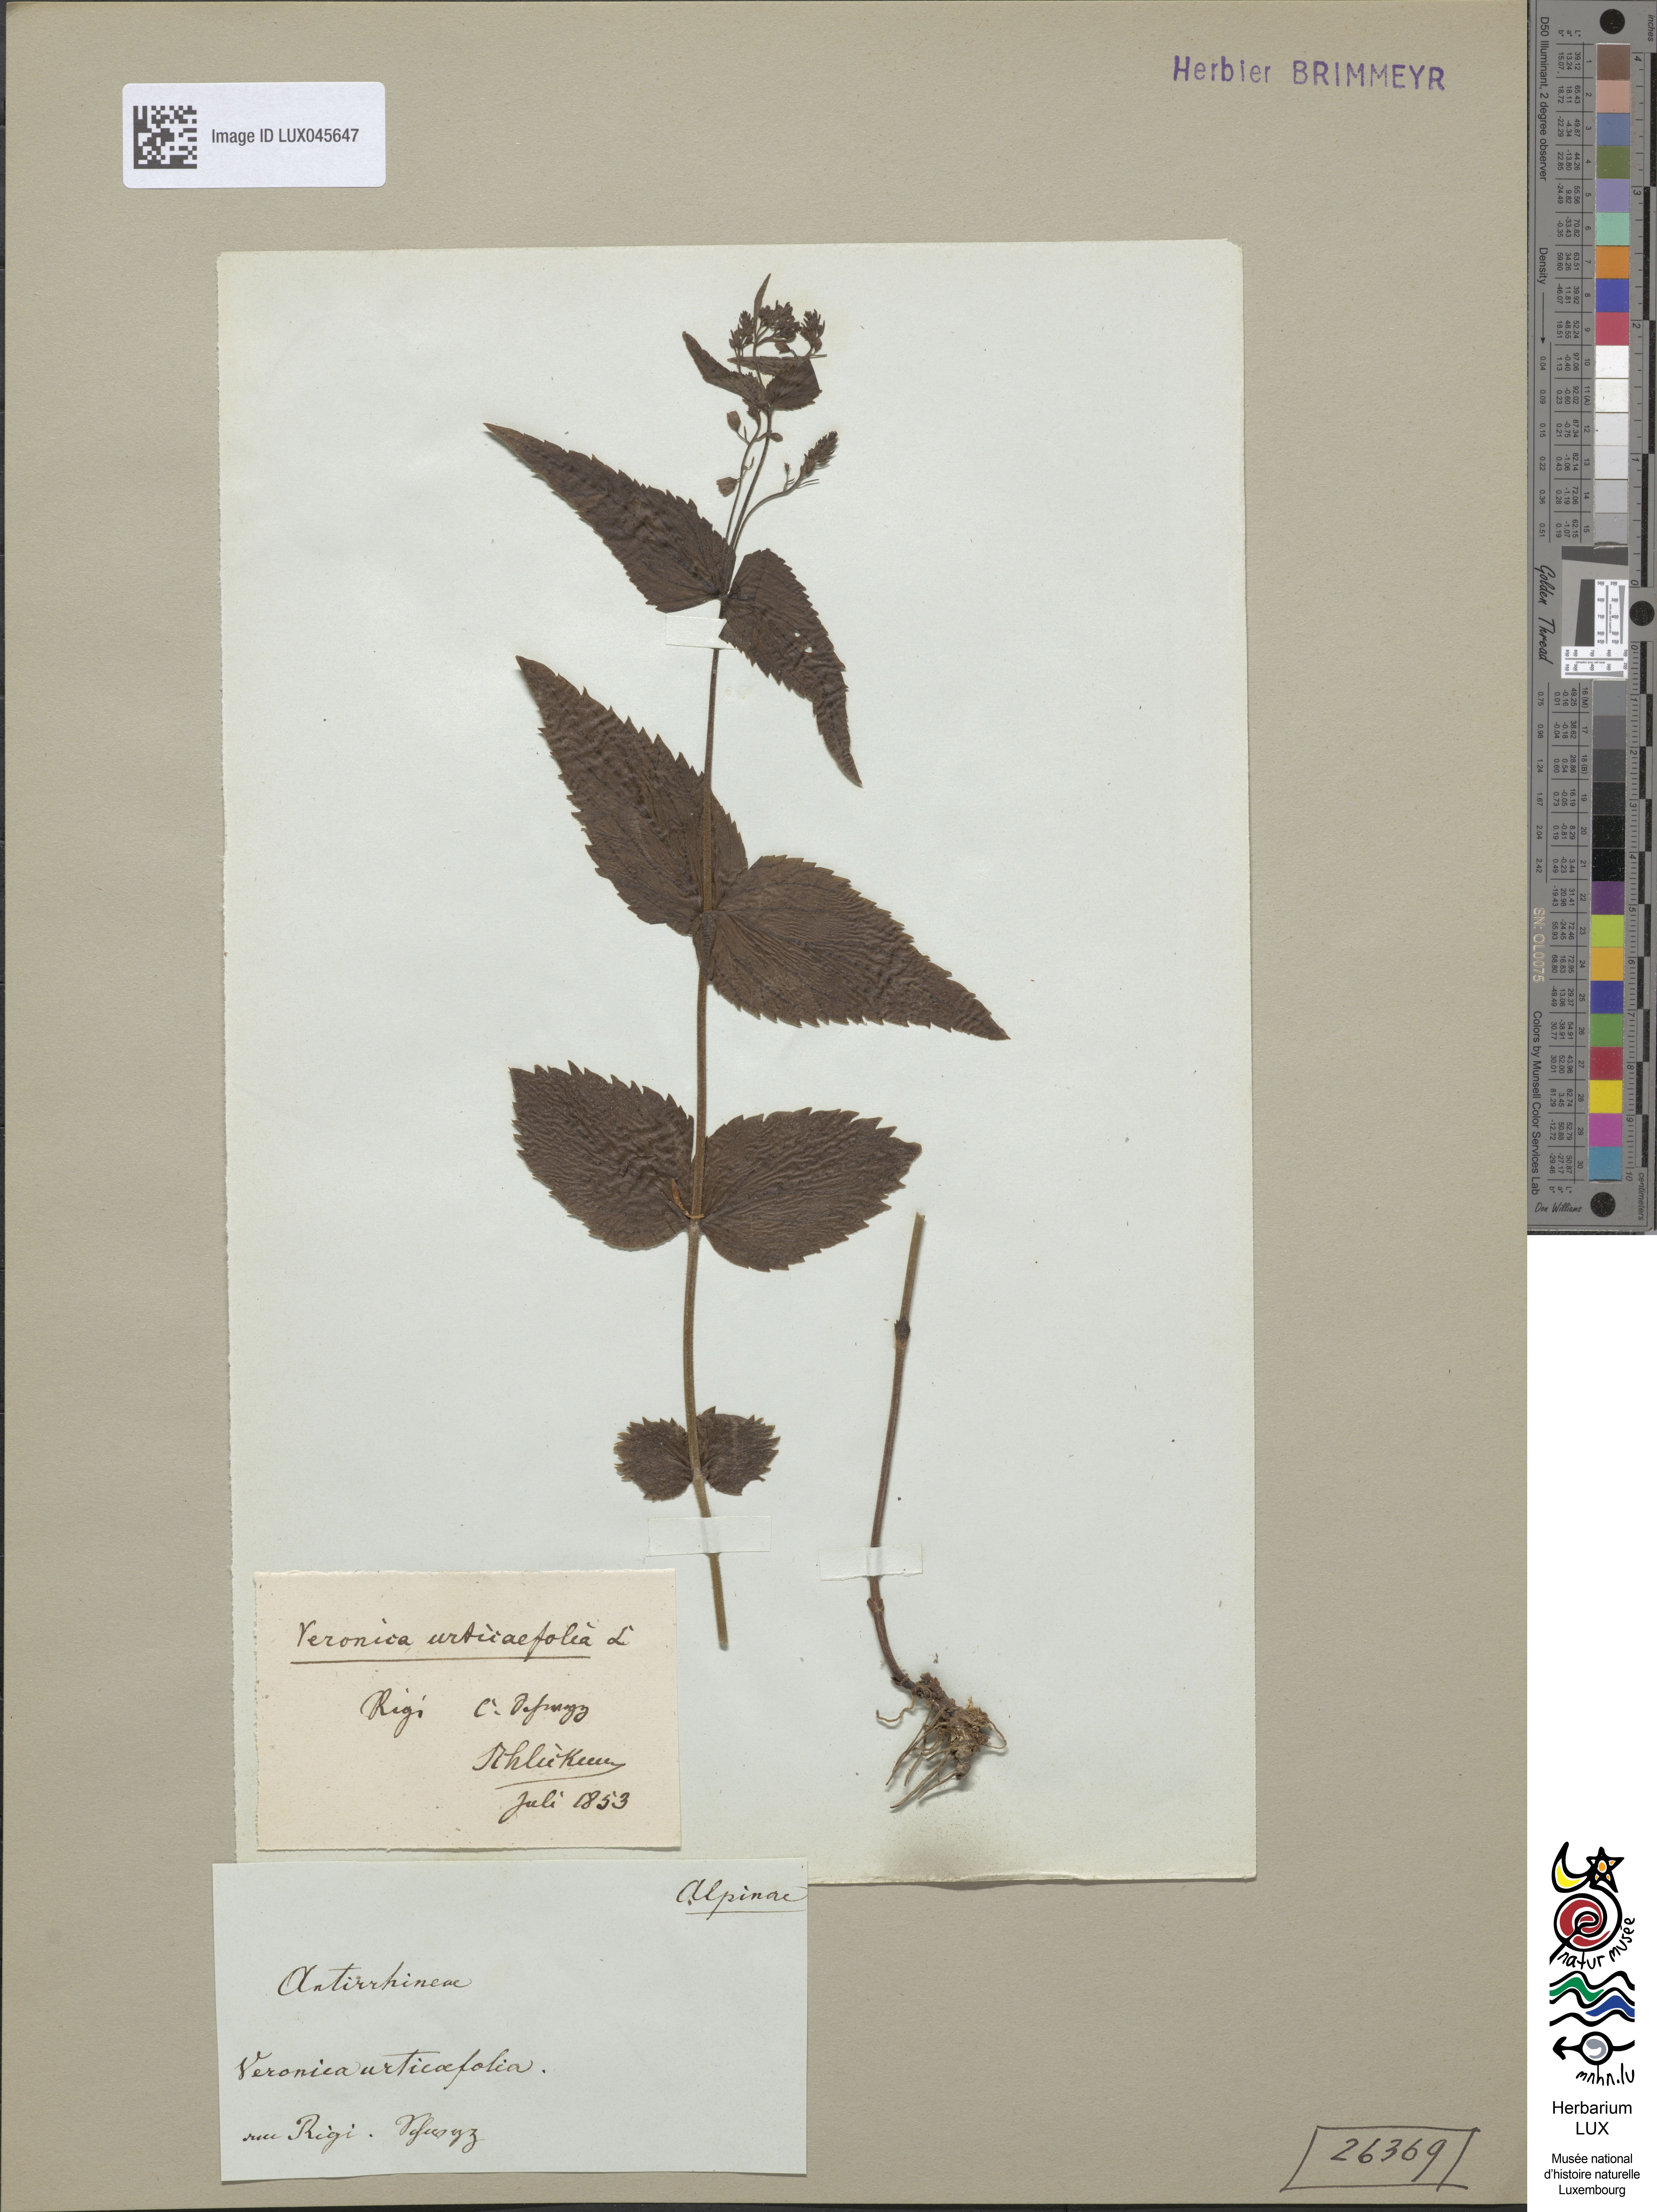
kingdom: Plantae
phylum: Tracheophyta
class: Magnoliopsida
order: Lamiales
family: Plantaginaceae
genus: Veronica
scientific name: Veronica urticifolia
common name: Nettle-leaf speedwell
